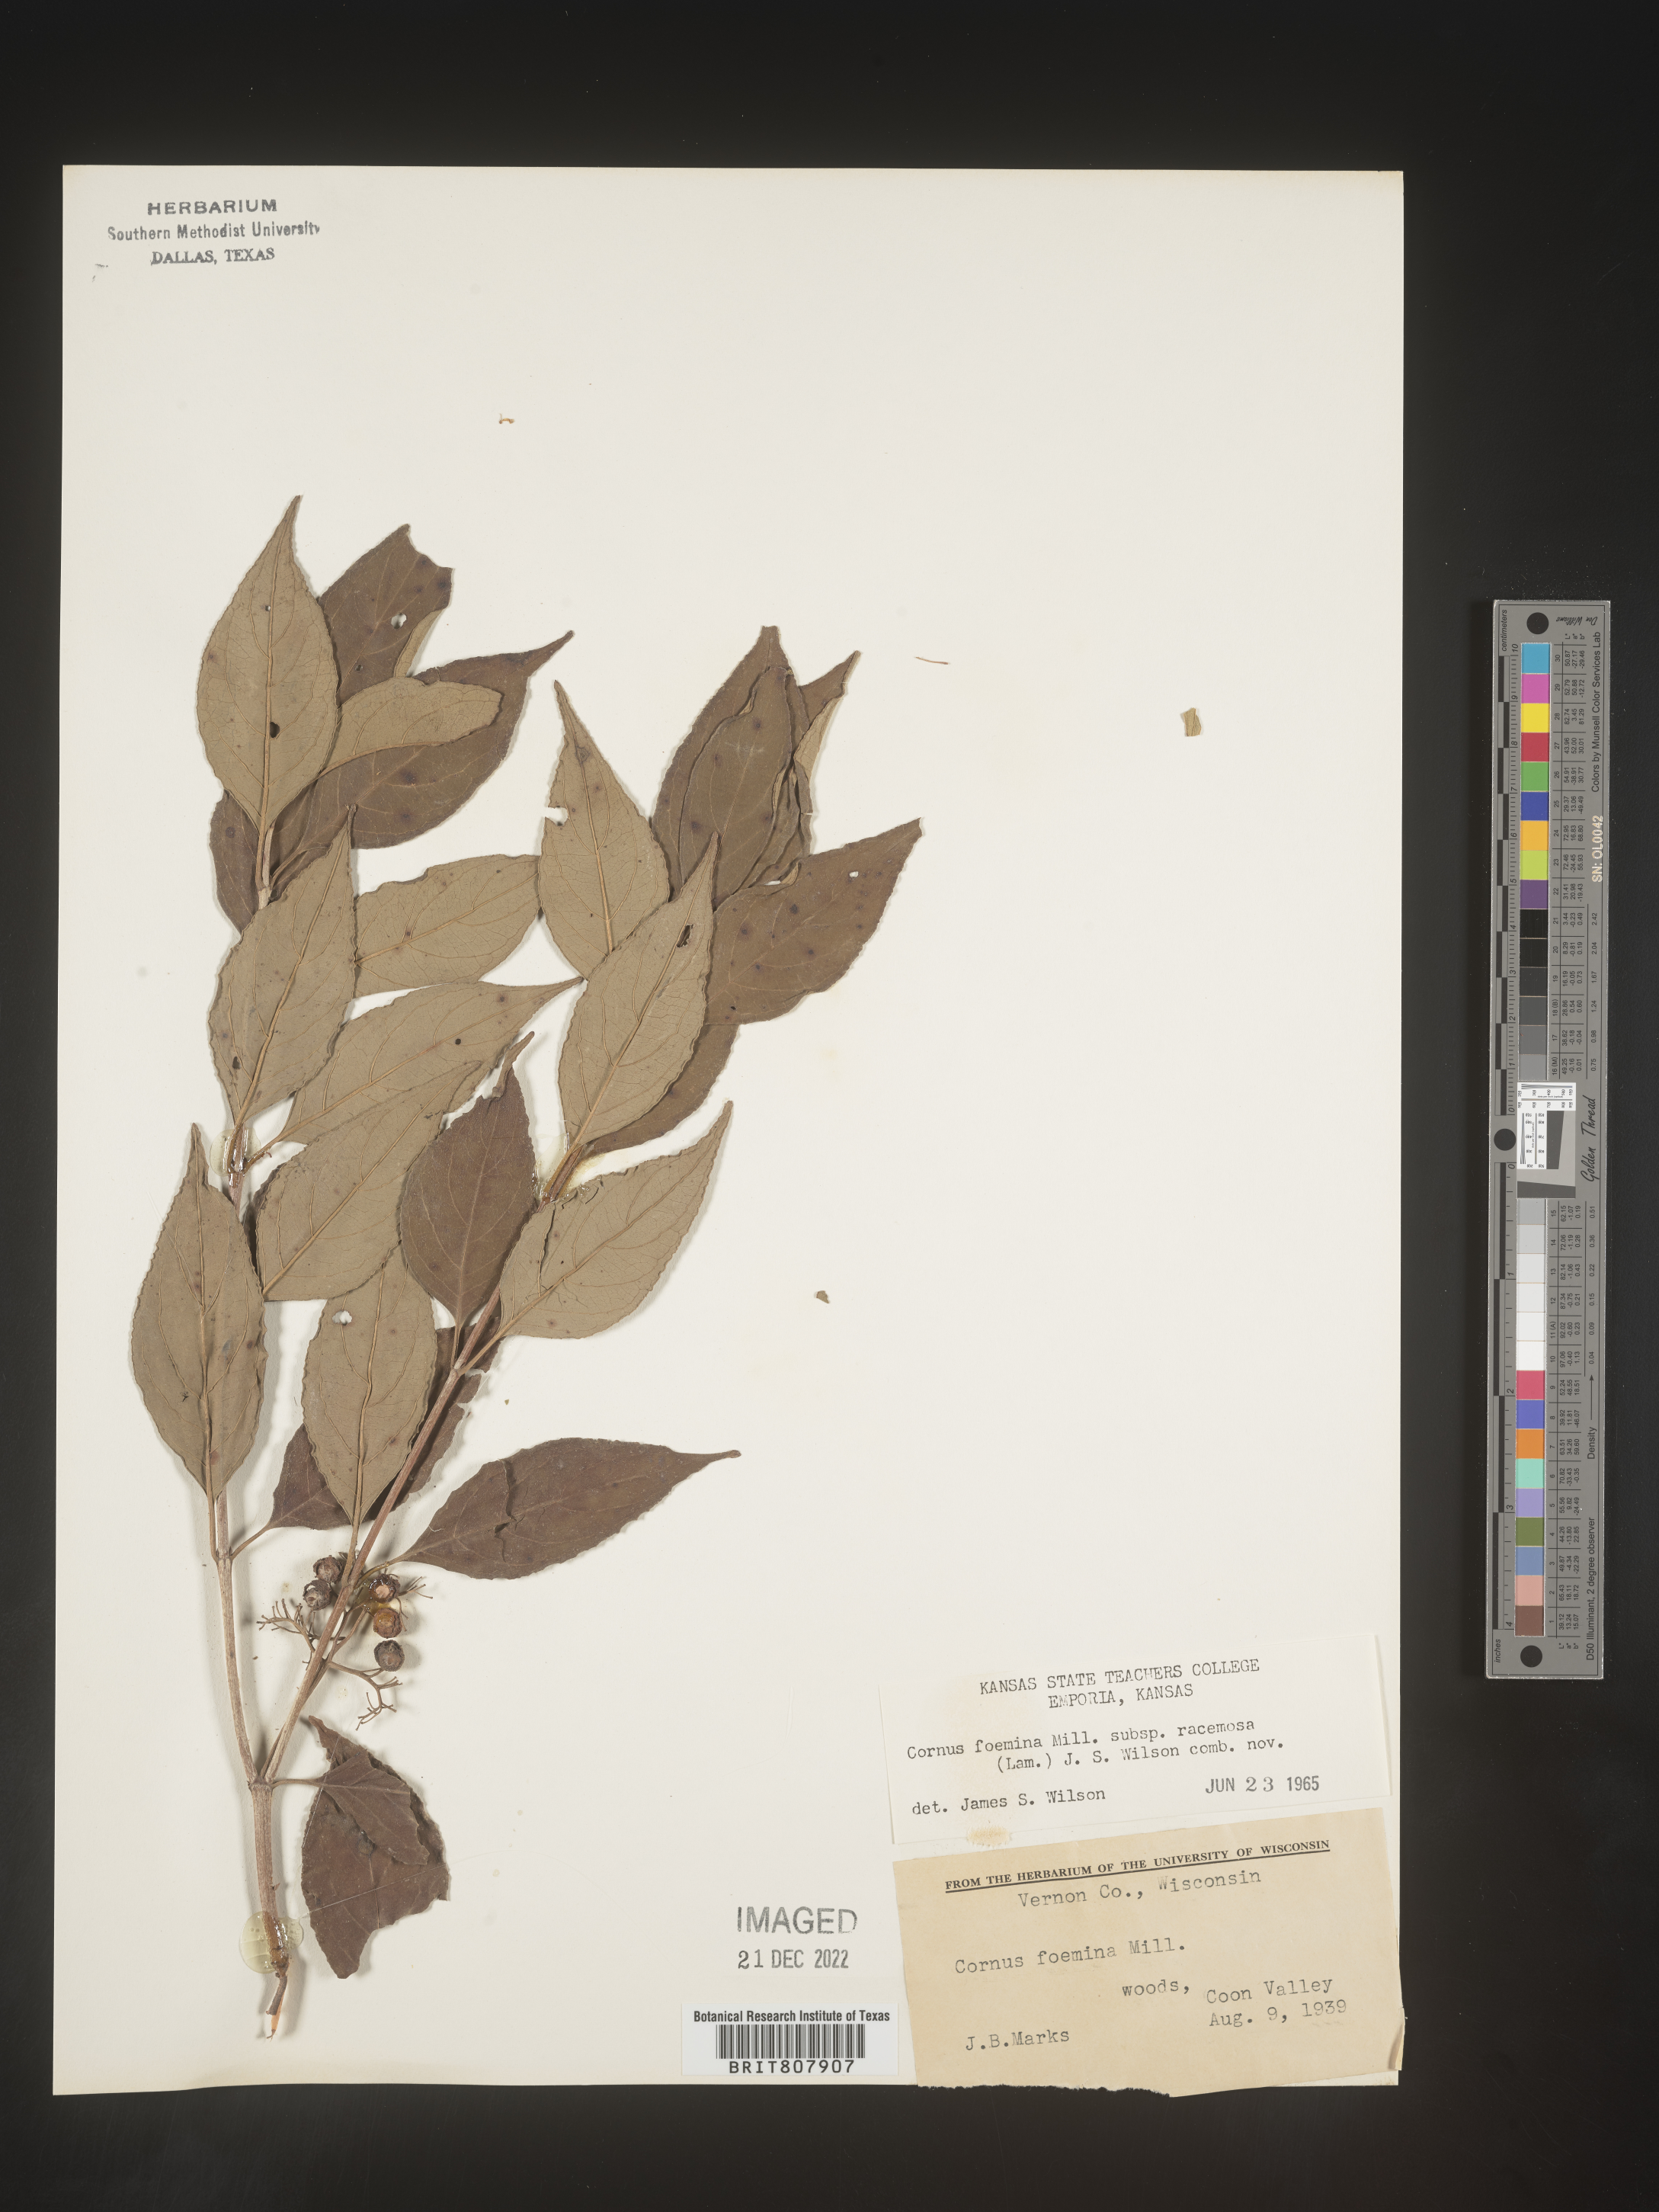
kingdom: Plantae
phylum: Tracheophyta
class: Magnoliopsida
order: Cornales
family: Cornaceae
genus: Cornus
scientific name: Cornus racemosa
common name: Panicled dogwood
